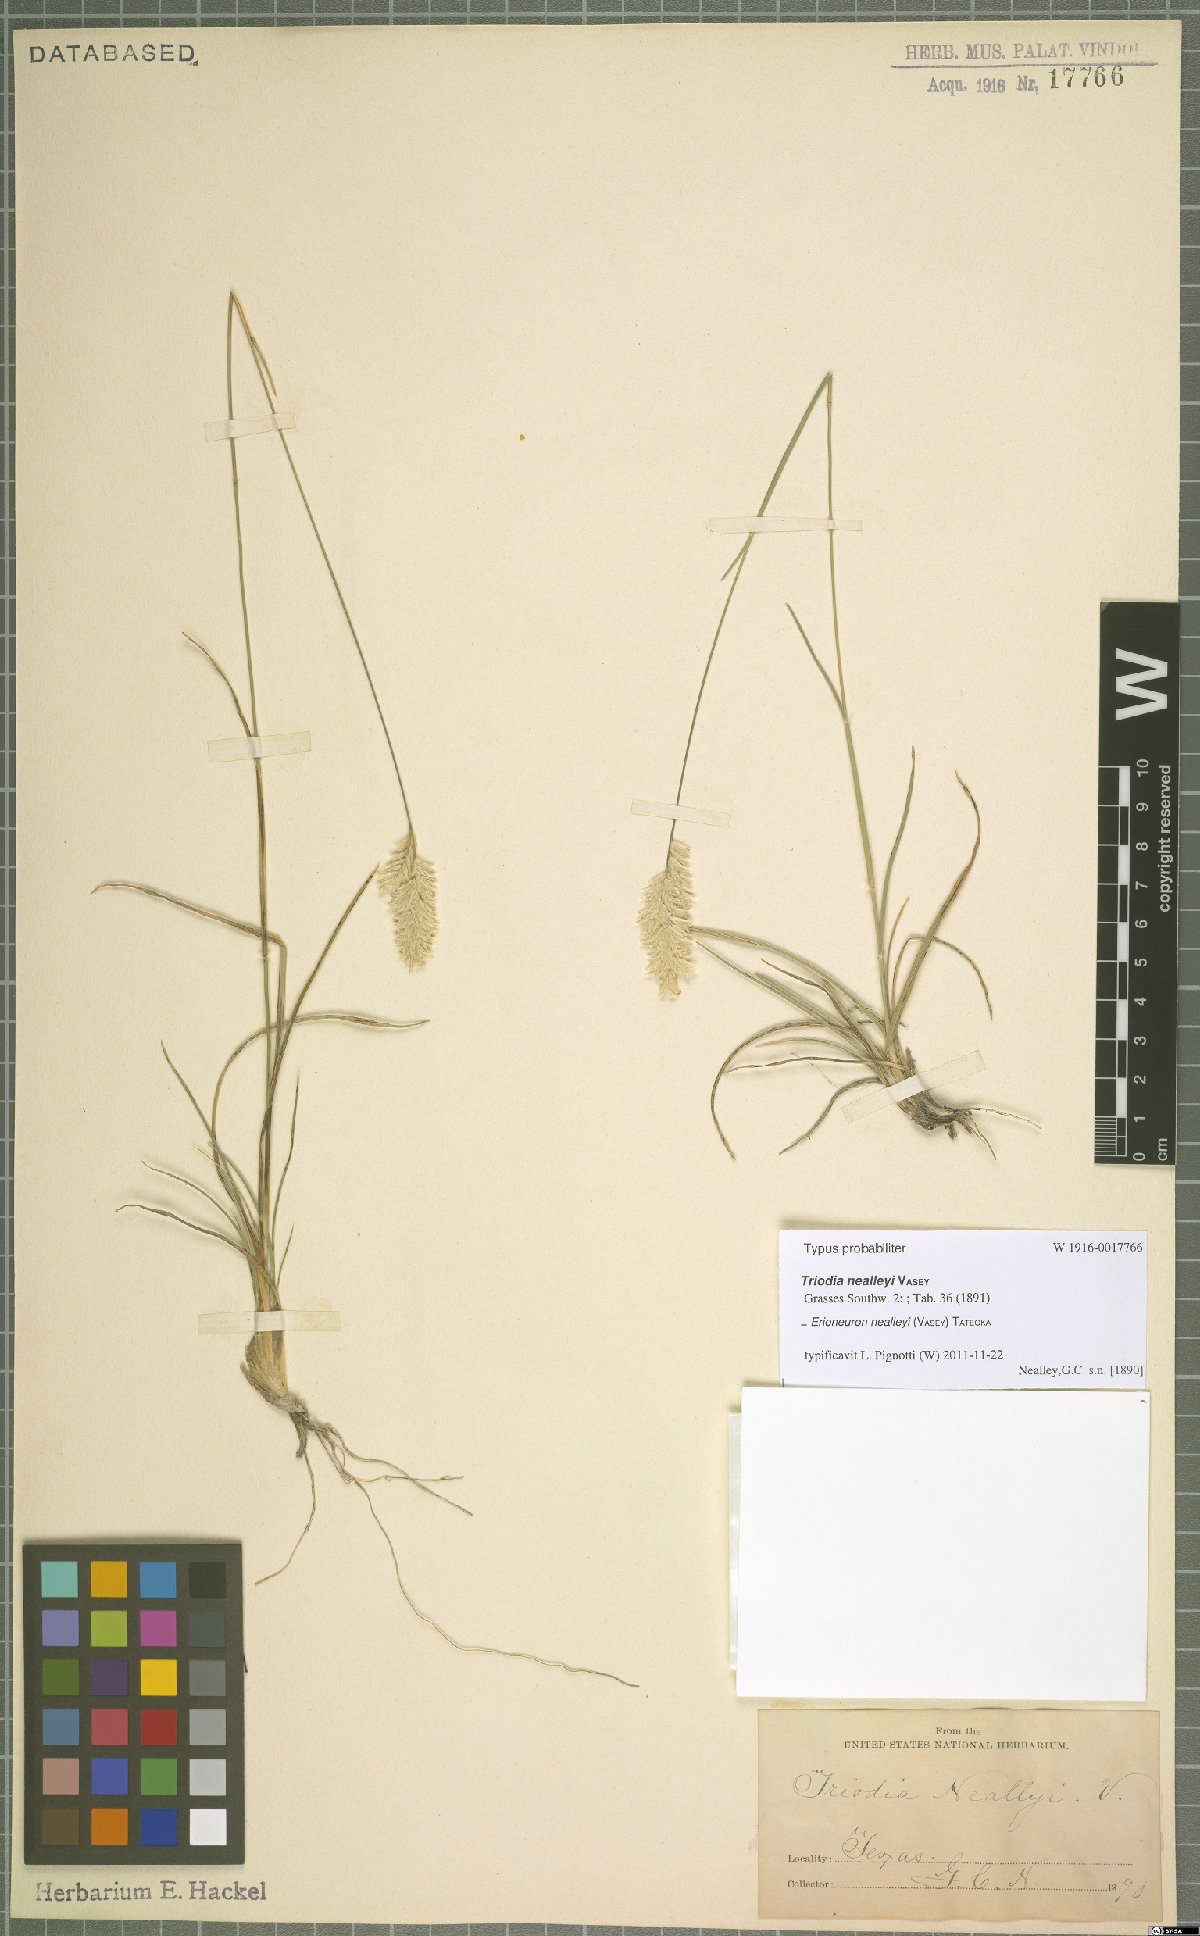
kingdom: Plantae
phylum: Tracheophyta
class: Liliopsida
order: Poales
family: Poaceae
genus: Erioneuron
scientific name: Erioneuron avenaceum
